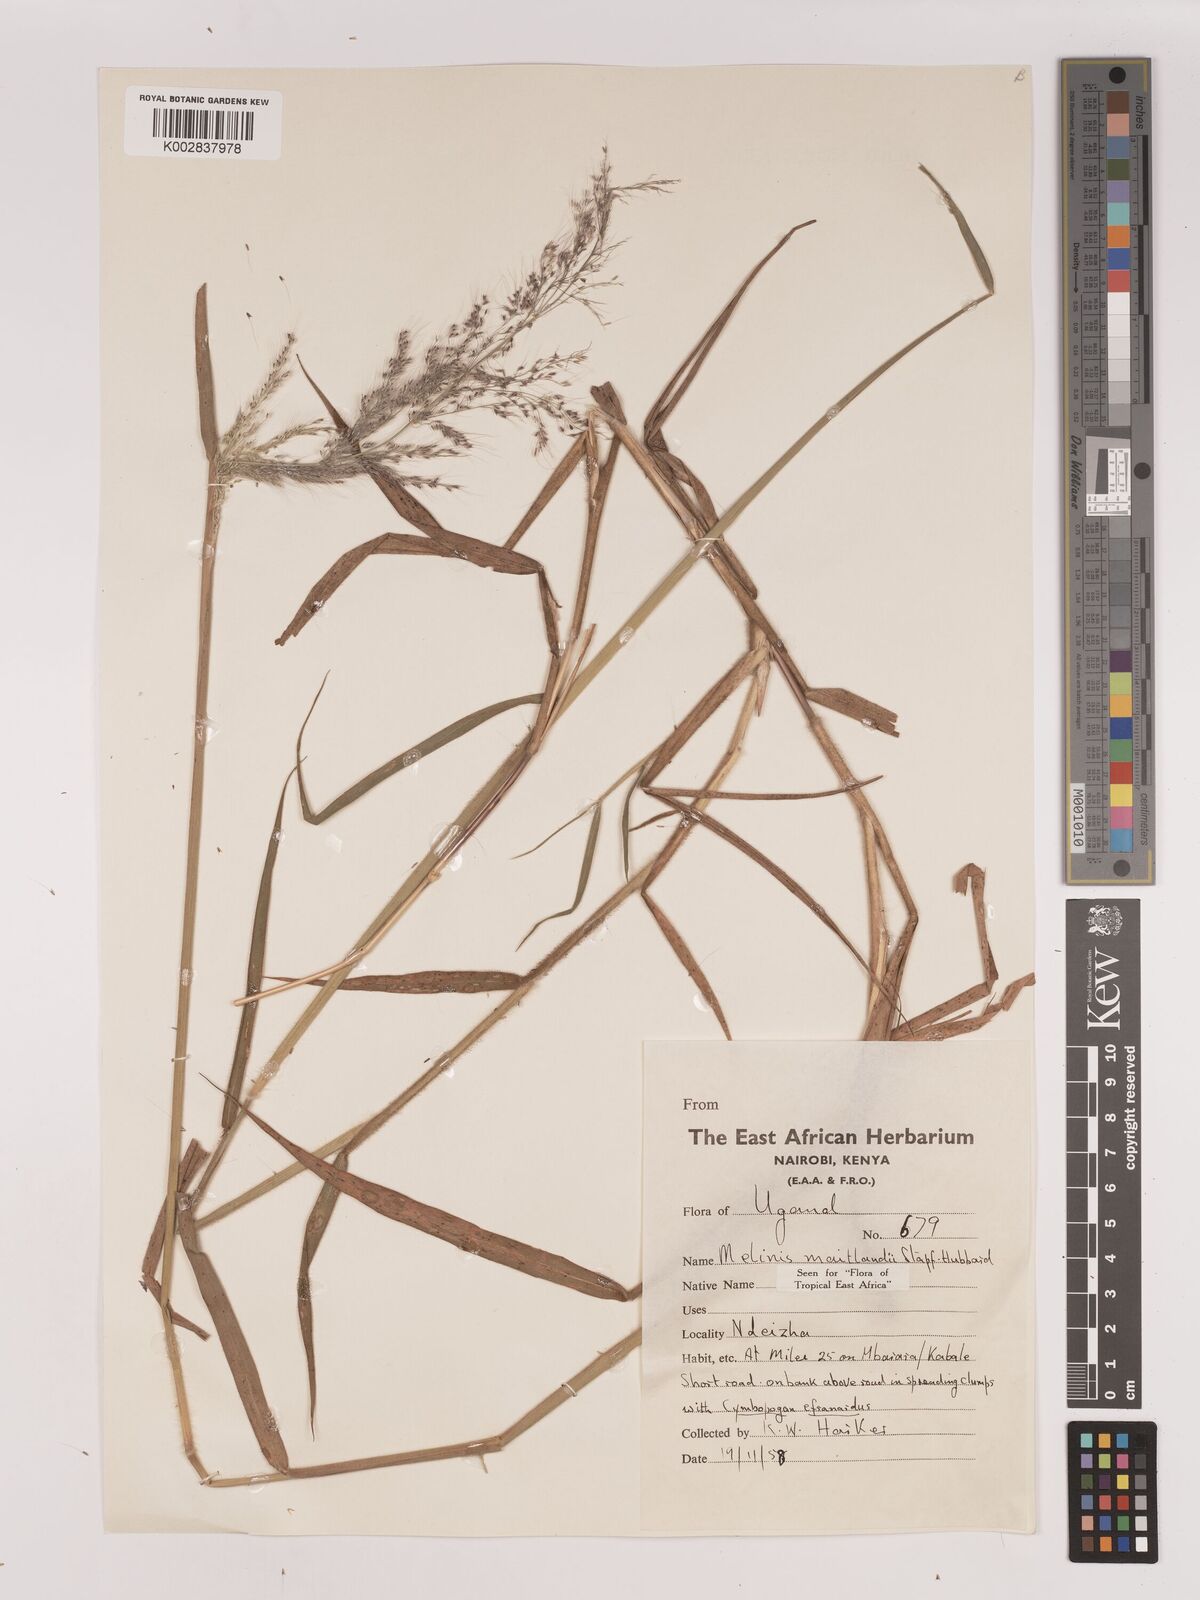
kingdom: Plantae
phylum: Tracheophyta
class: Liliopsida
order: Poales
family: Poaceae
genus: Melinis
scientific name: Melinis minutiflora
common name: Molassesgrass
